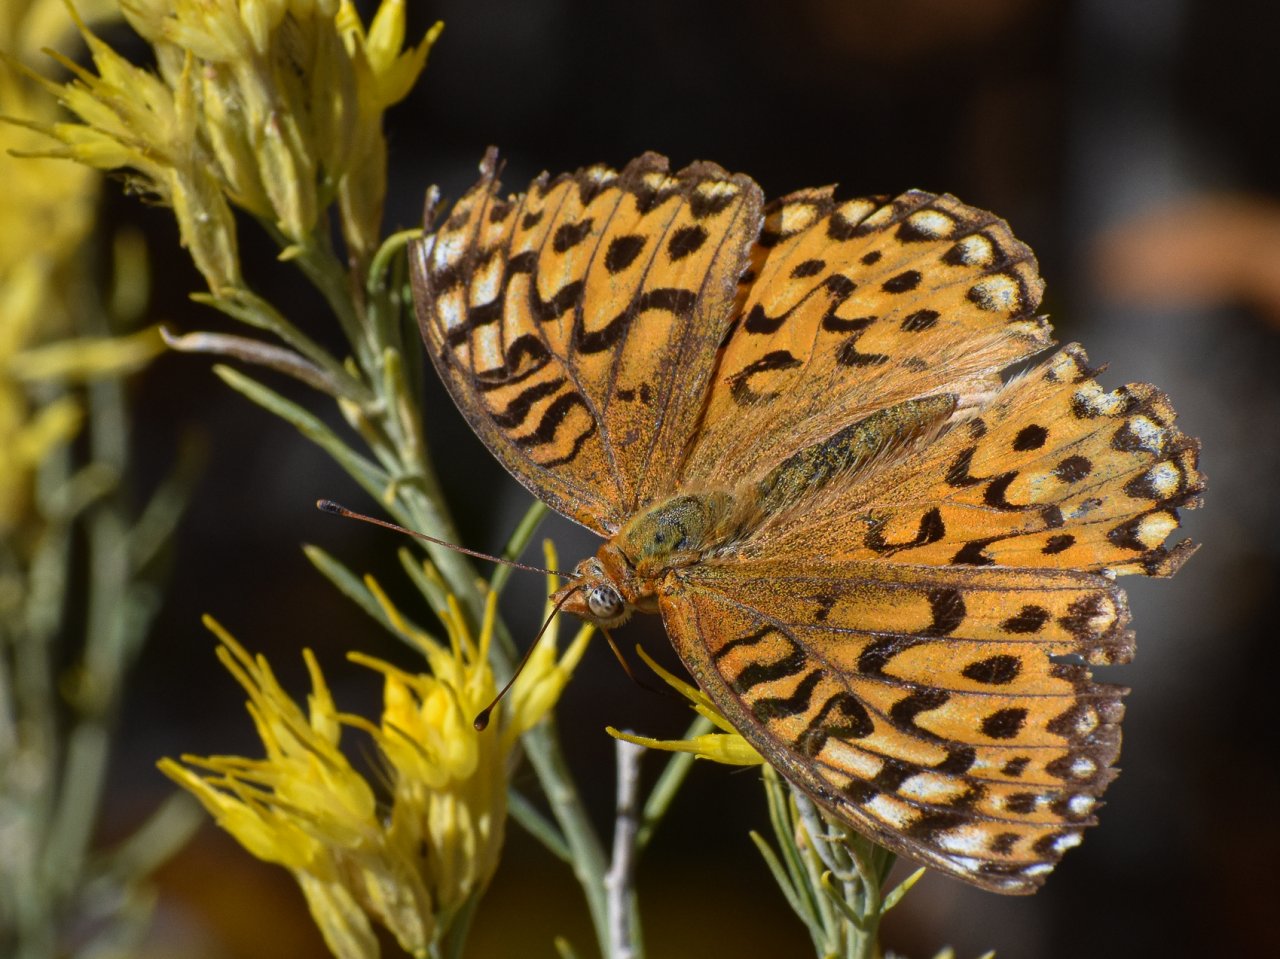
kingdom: Animalia
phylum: Arthropoda
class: Insecta
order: Lepidoptera
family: Nymphalidae
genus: Speyeria
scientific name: Speyeria atlantis
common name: Northwestern Fritillary
